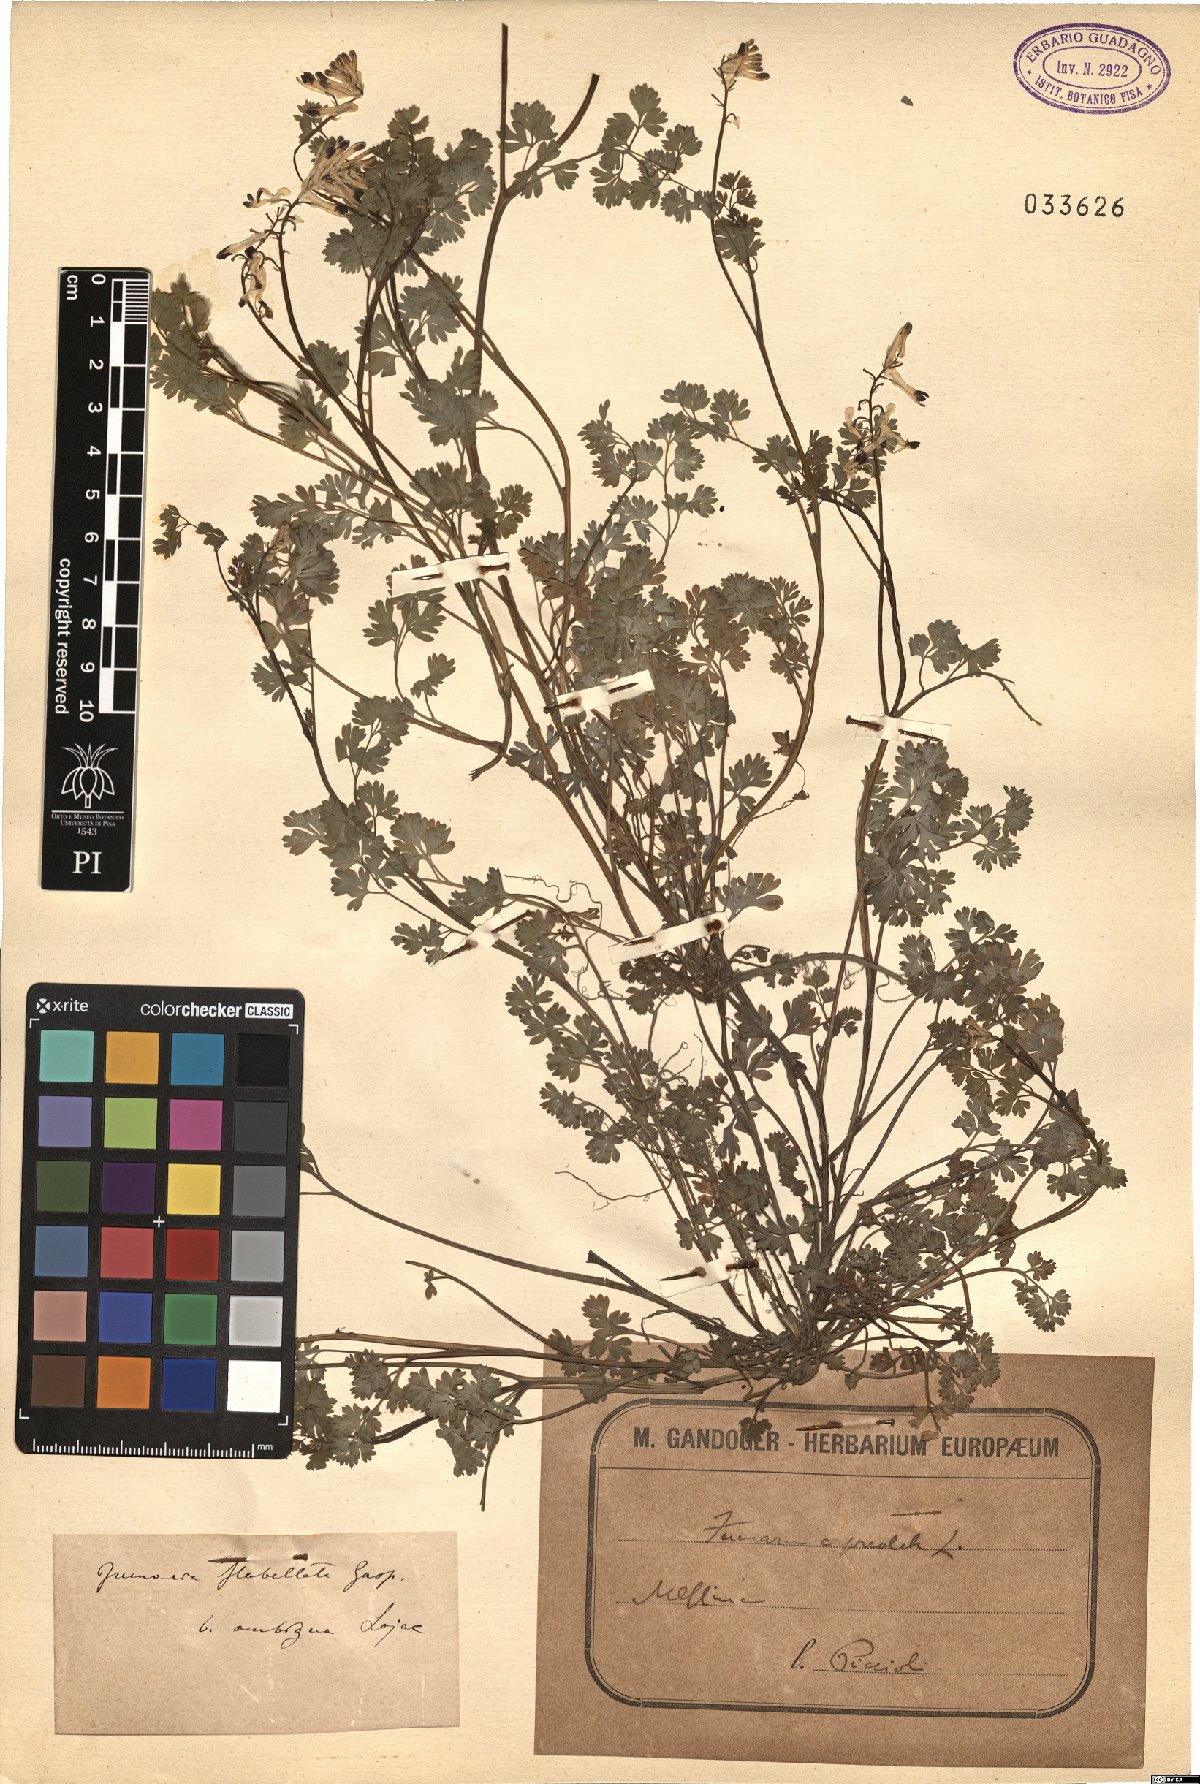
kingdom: Plantae
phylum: Tracheophyta
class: Magnoliopsida
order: Ranunculales
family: Papaveraceae
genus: Fumaria
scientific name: Fumaria flabellata
